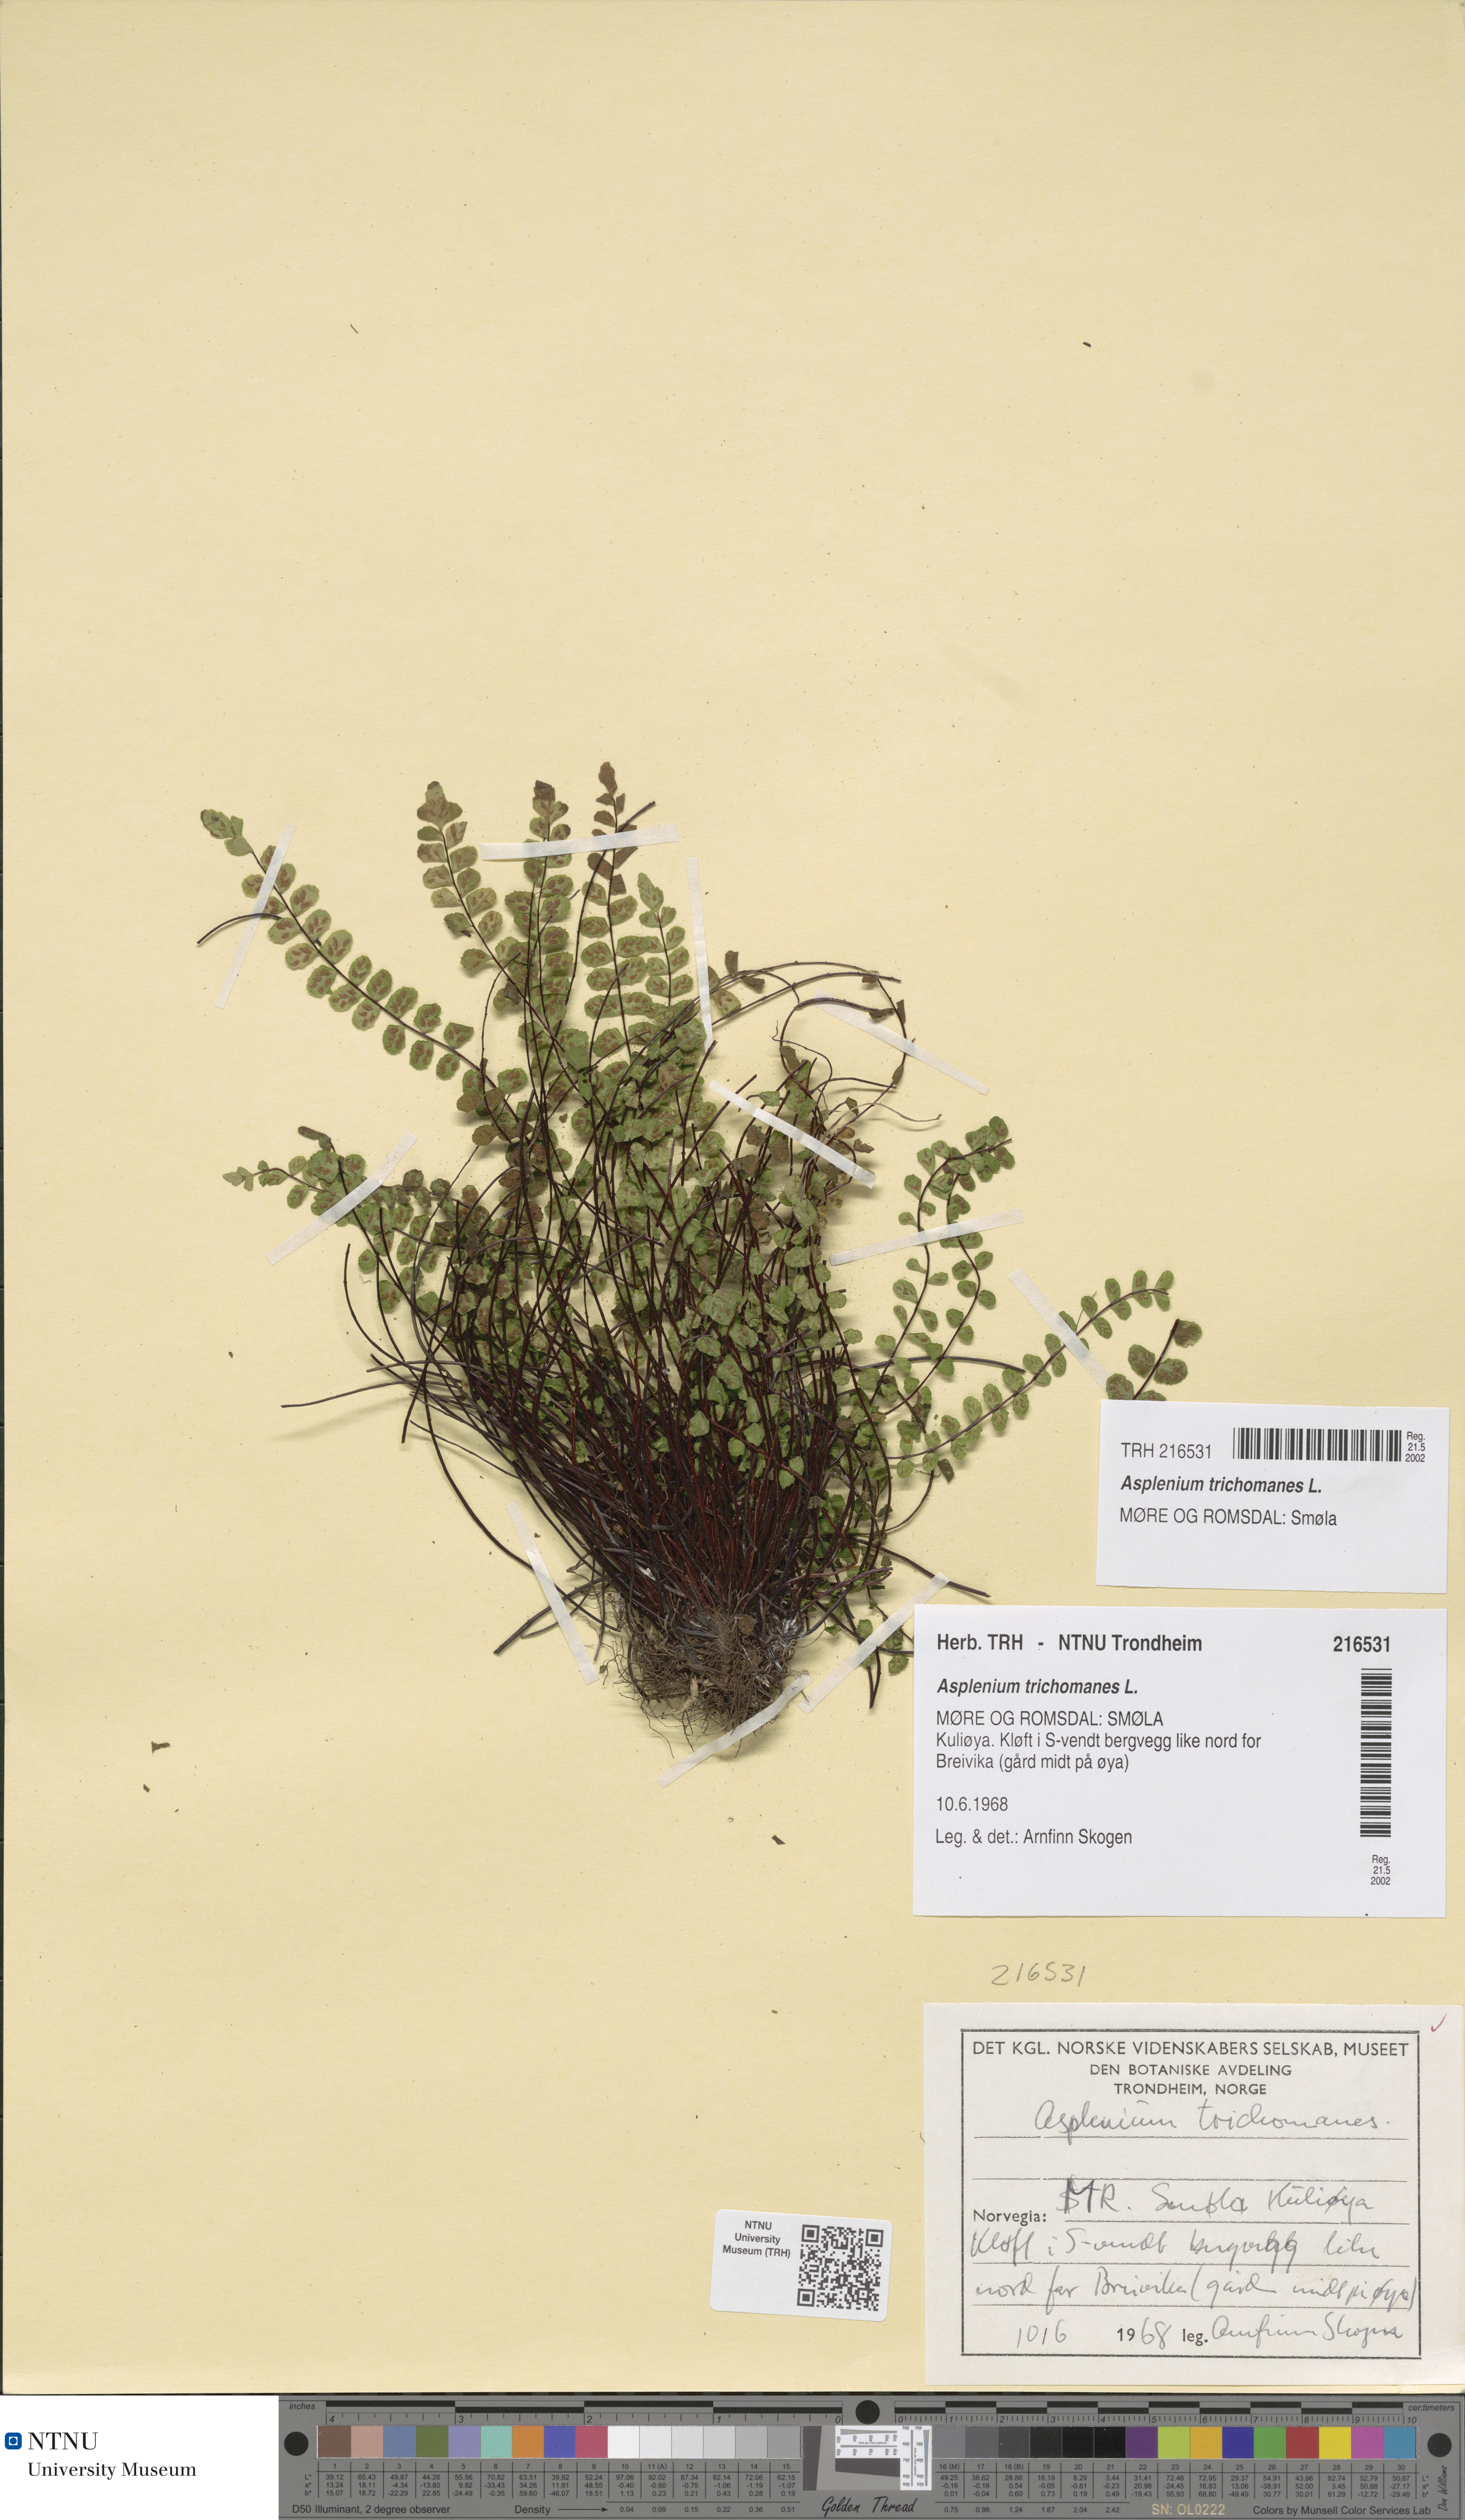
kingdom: Plantae
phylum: Tracheophyta
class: Polypodiopsida
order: Polypodiales
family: Aspleniaceae
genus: Asplenium
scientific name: Asplenium trichomanes
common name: Maidenhair spleenwort
